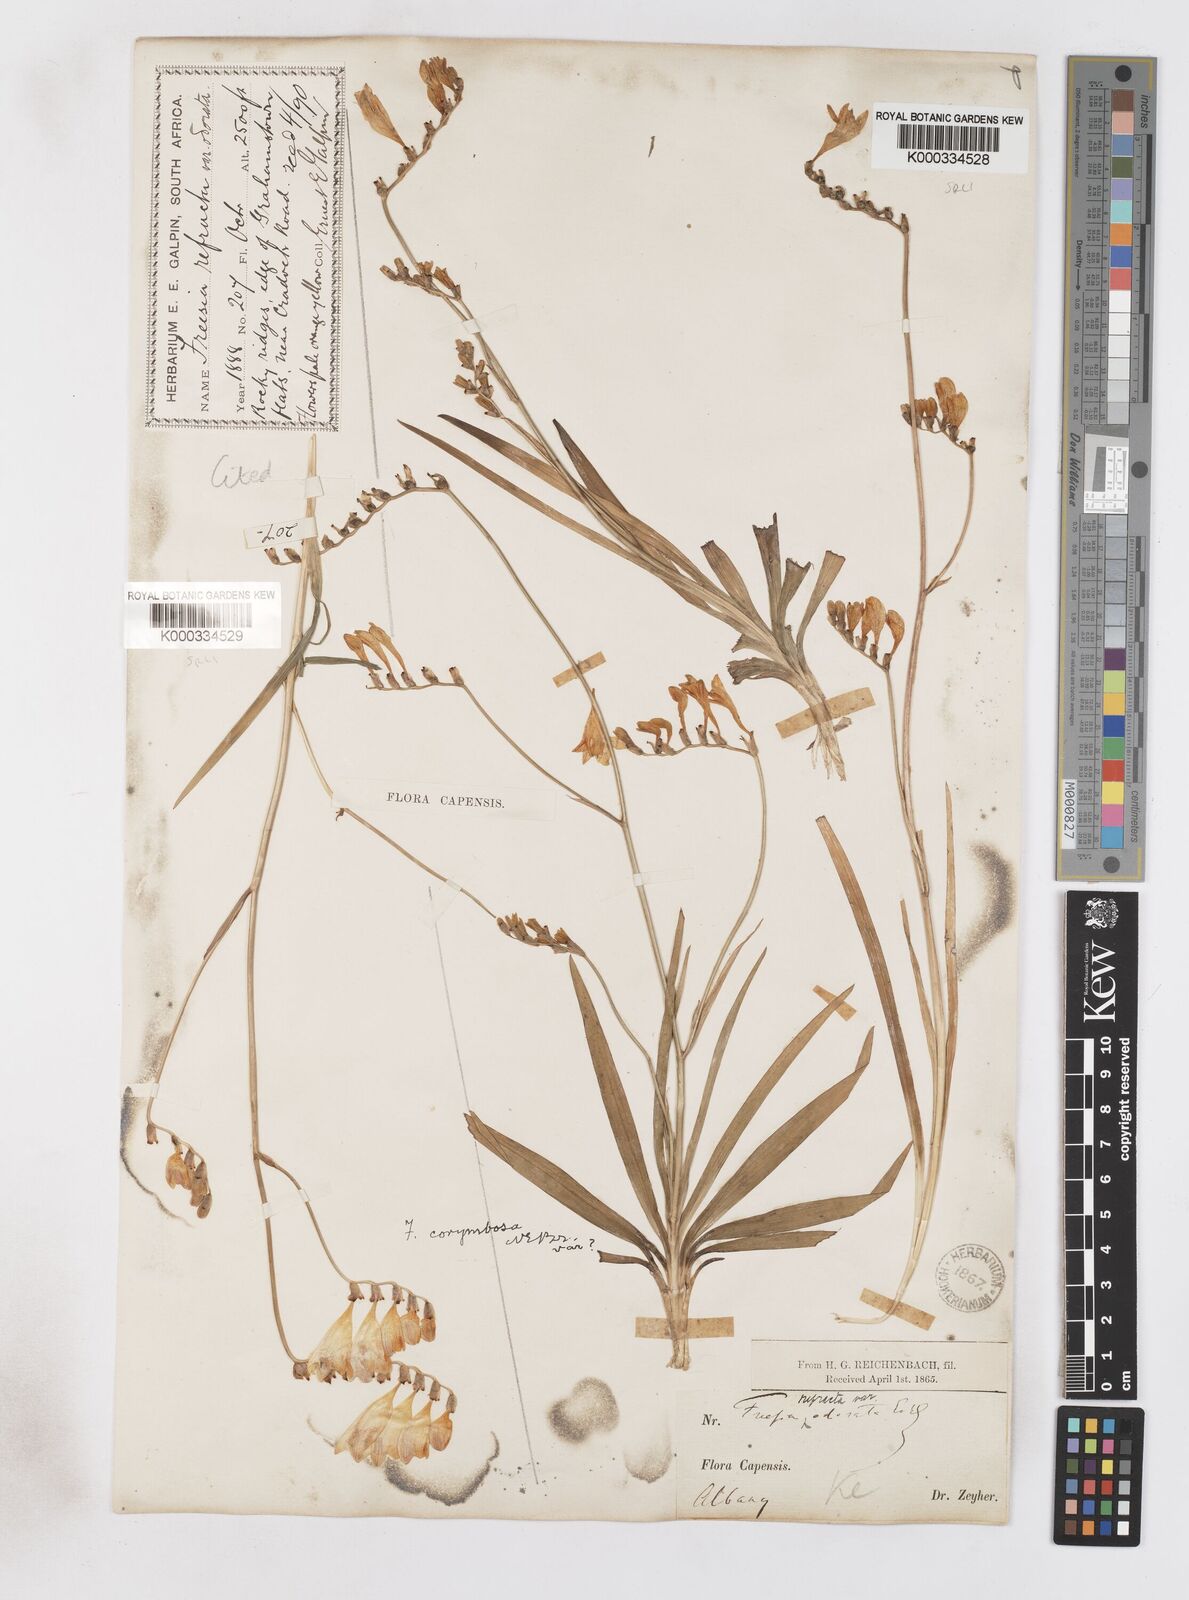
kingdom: Plantae
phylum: Tracheophyta
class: Liliopsida
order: Asparagales
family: Iridaceae
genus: Freesia
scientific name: Freesia corymbosa
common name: Common freesia
